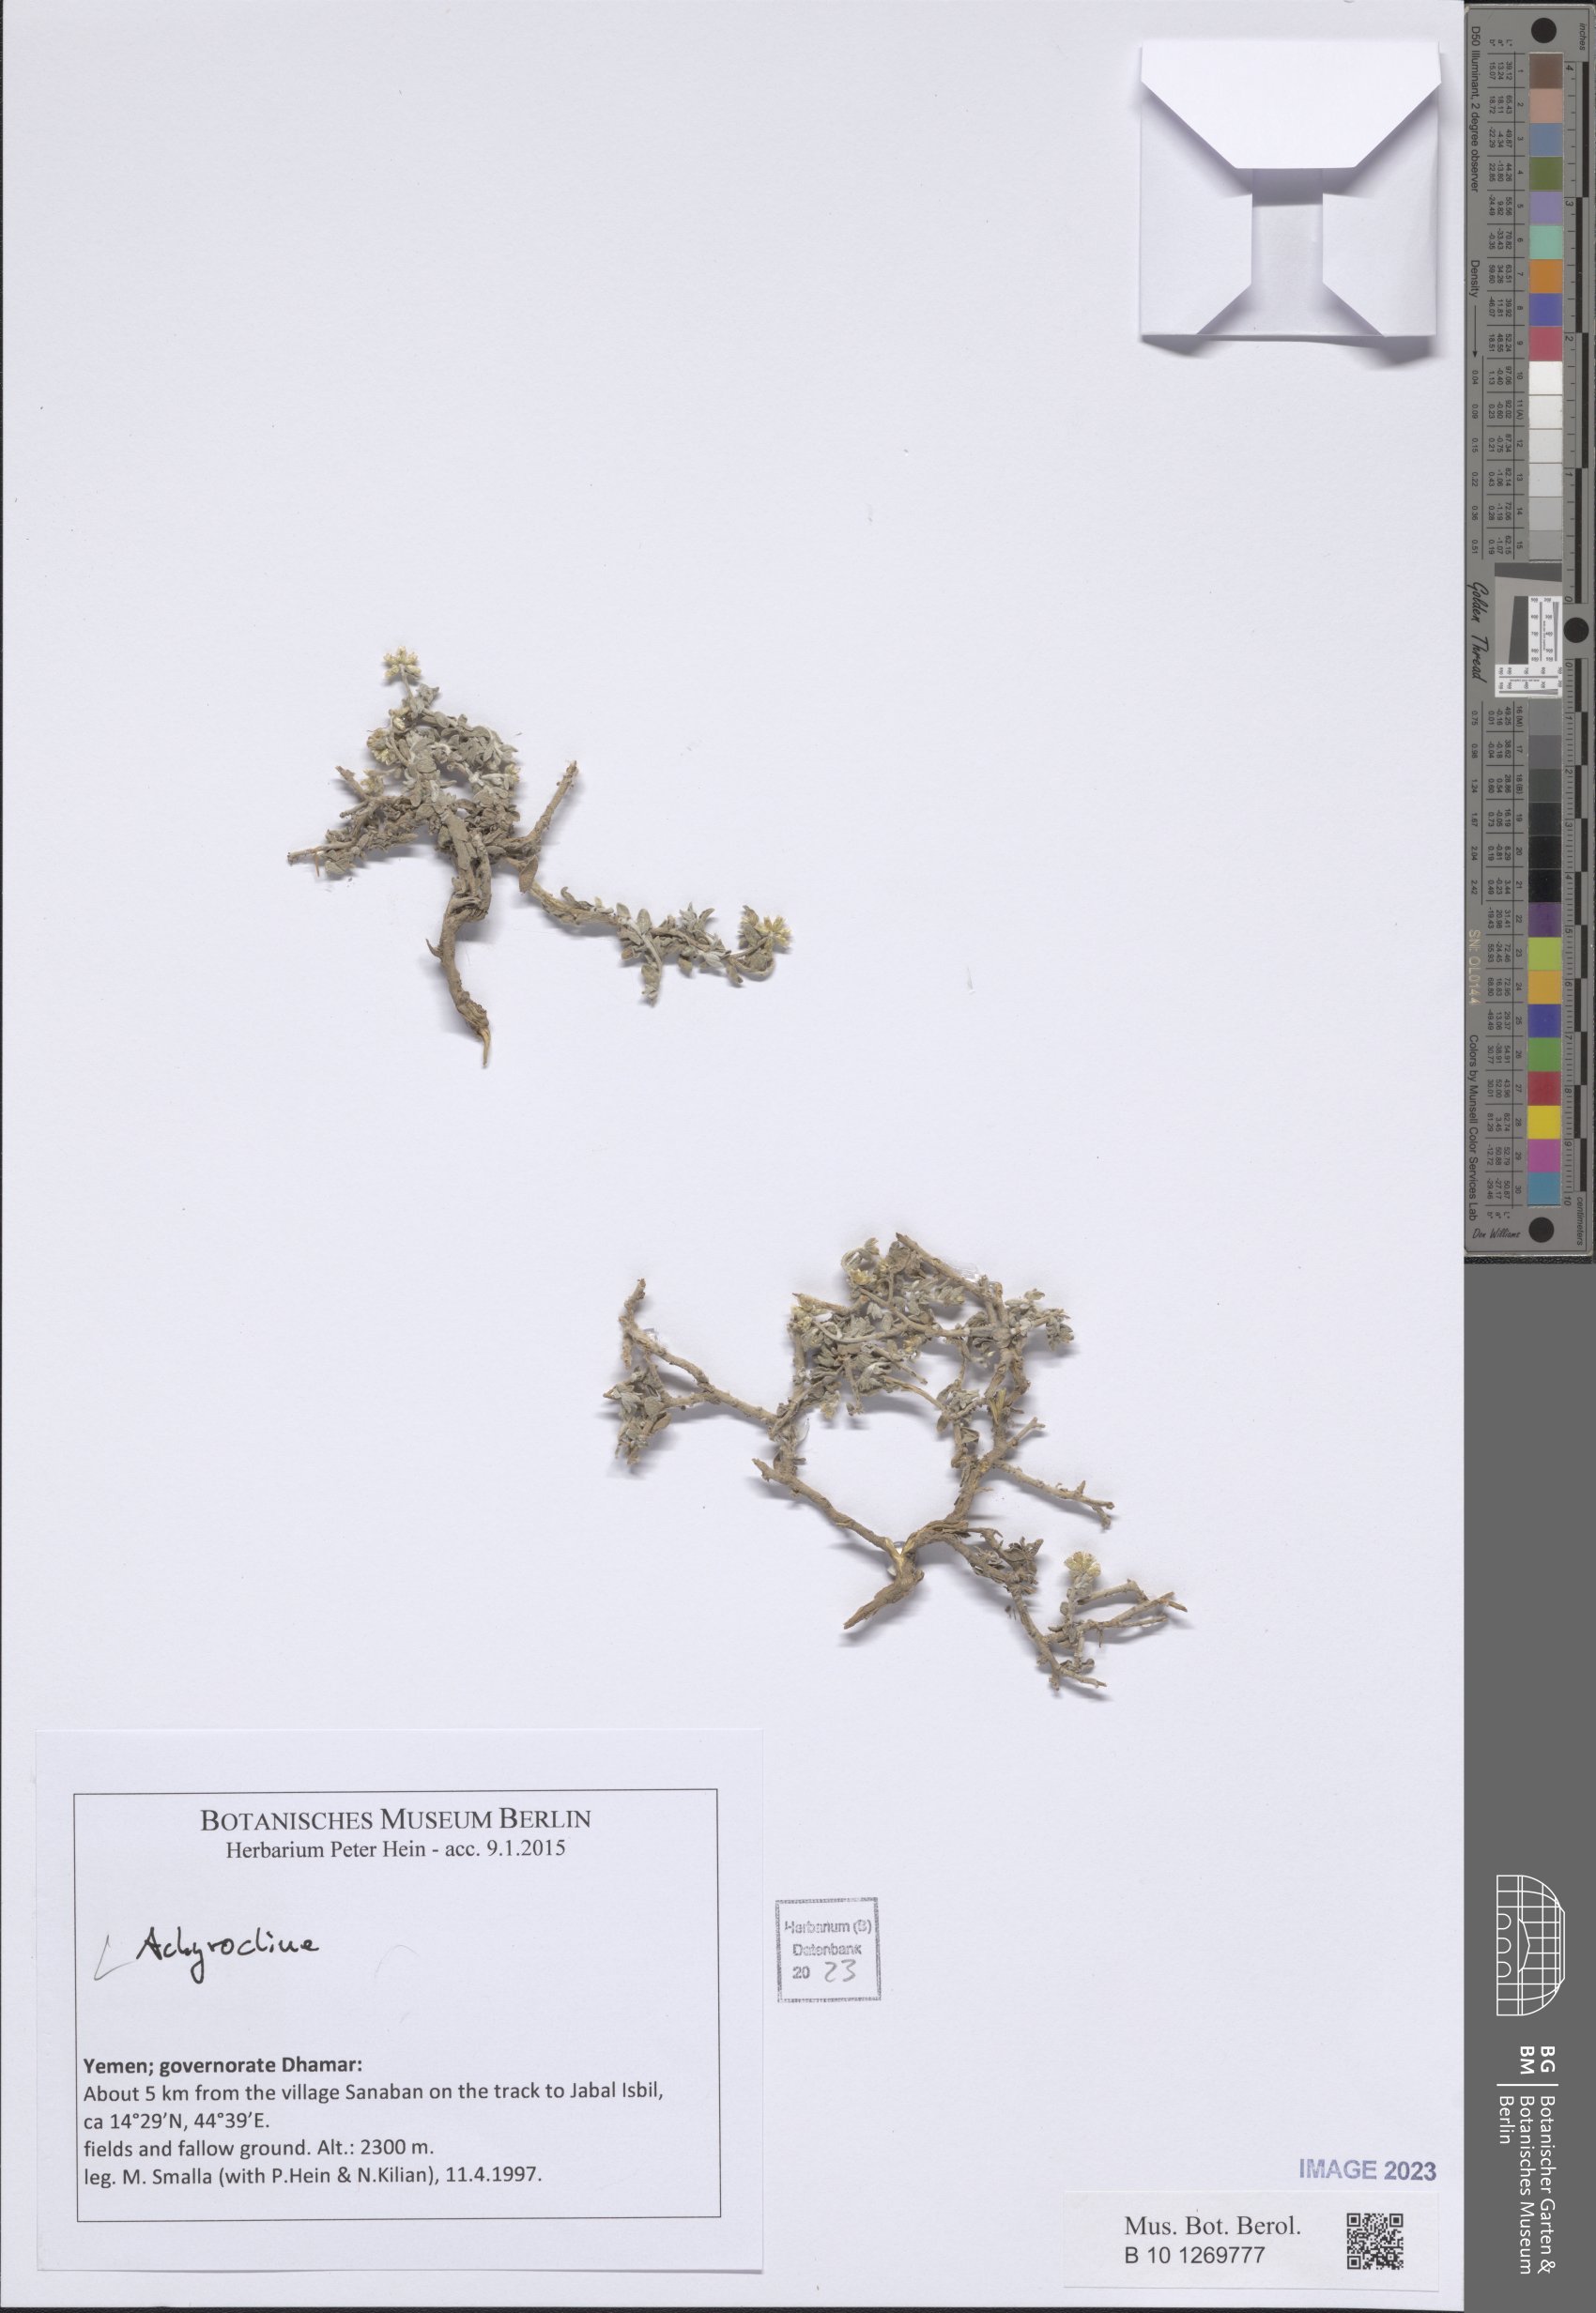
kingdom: Plantae
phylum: Tracheophyta
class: Magnoliopsida
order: Asterales
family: Asteraceae
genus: Helichrysum
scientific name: Helichrysum glumaceum
